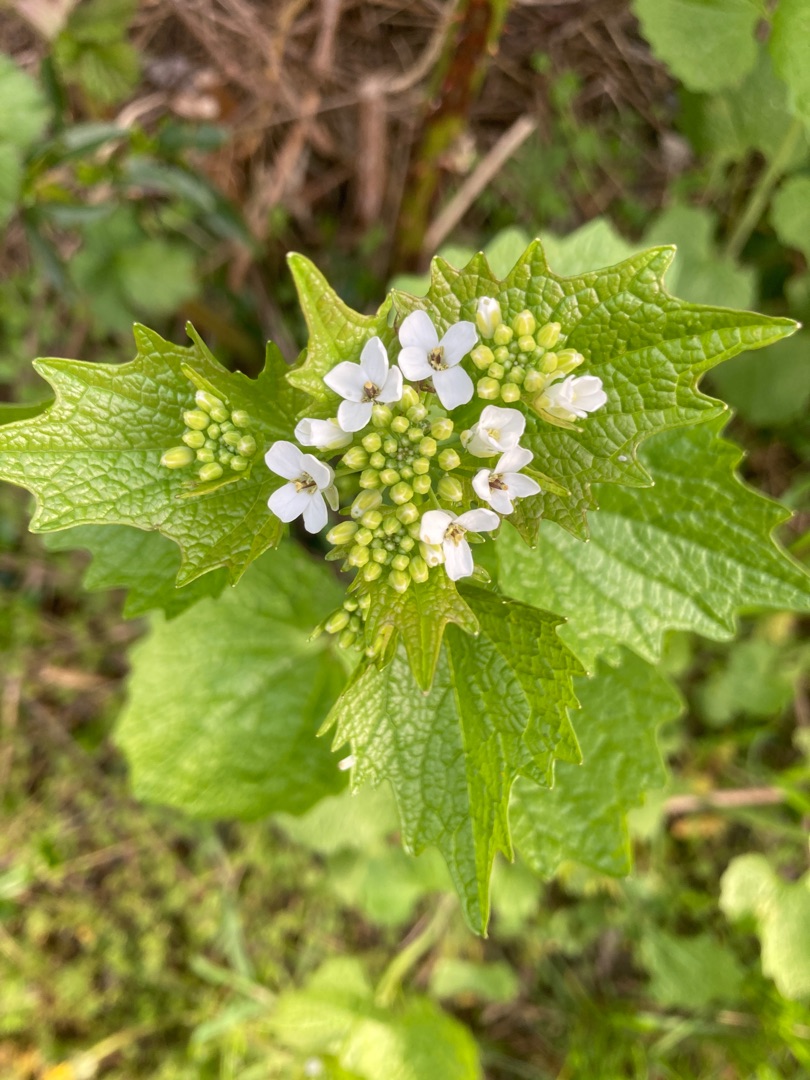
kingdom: Plantae
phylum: Tracheophyta
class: Magnoliopsida
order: Brassicales
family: Brassicaceae
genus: Alliaria
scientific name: Alliaria petiolata
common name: Løgkarse
